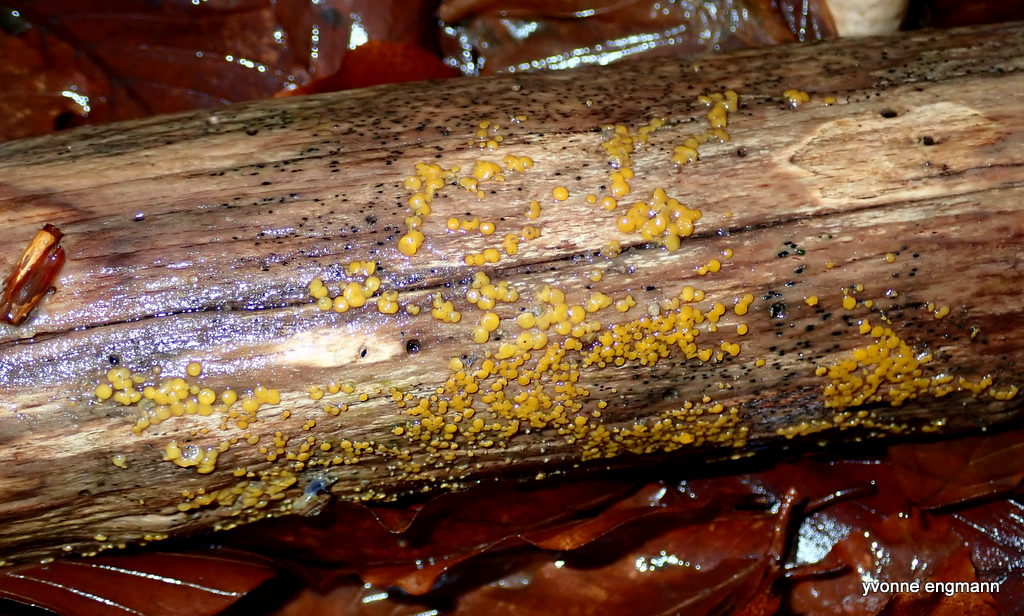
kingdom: Fungi
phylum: Ascomycota
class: Leotiomycetes
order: Helotiales
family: Pezizellaceae
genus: Calycina
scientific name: Calycina citrina
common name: almindelig gulskive
